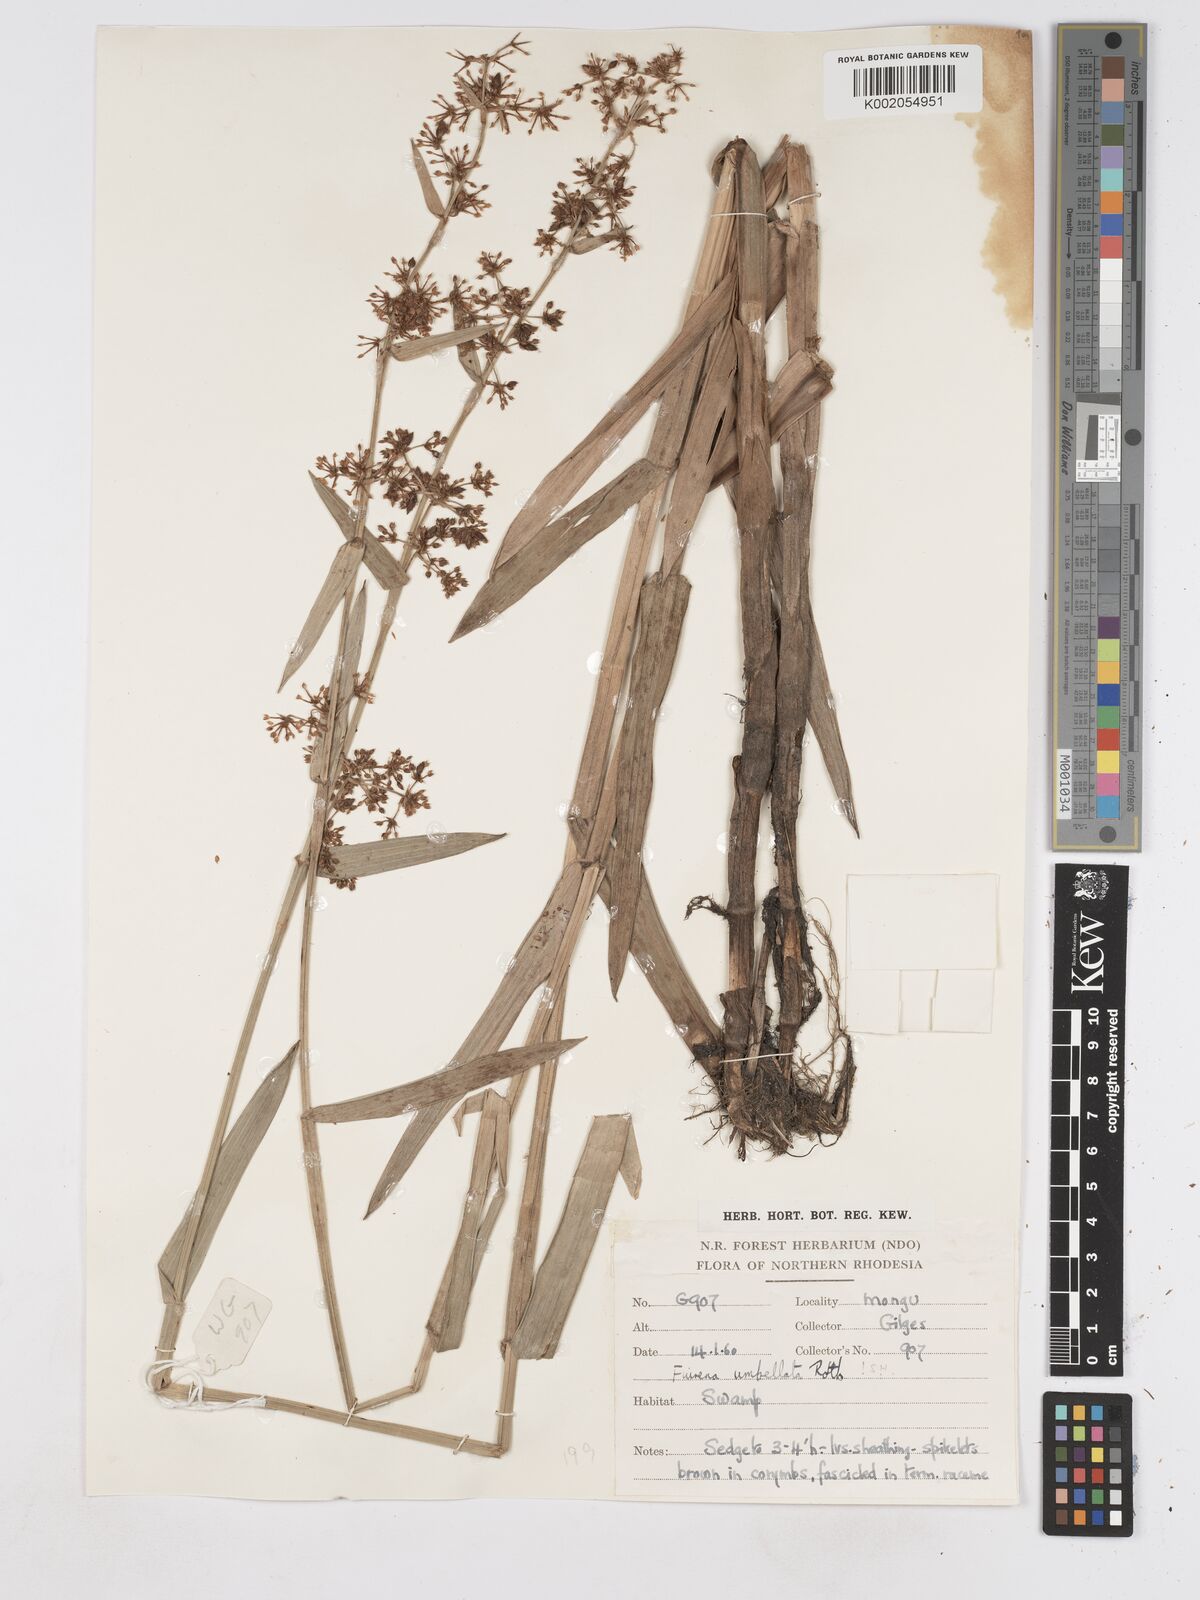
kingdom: Plantae
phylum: Tracheophyta
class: Liliopsida
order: Poales
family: Cyperaceae
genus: Fuirena
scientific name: Fuirena umbellata
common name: Yefen
